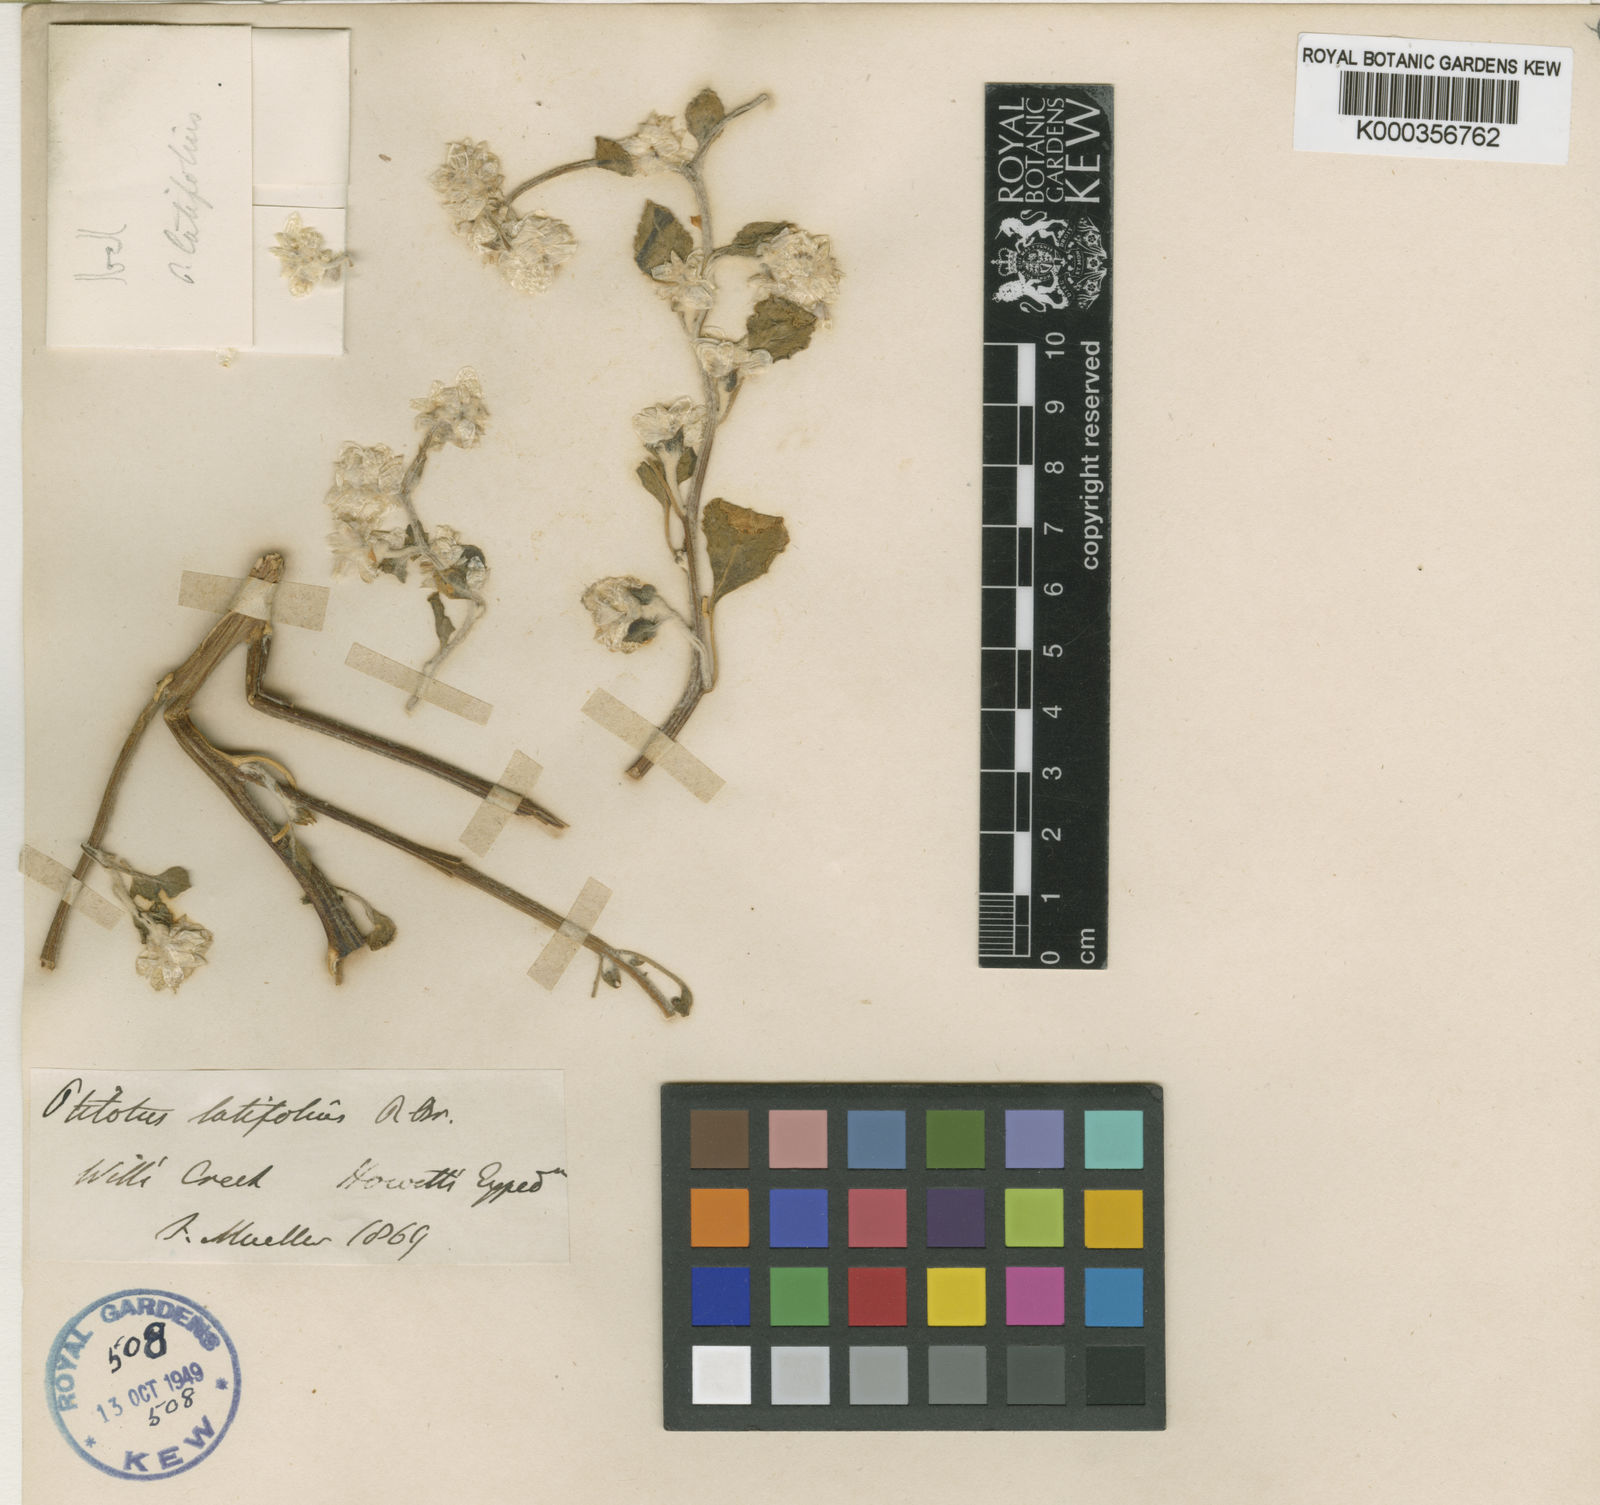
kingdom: Plantae
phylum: Tracheophyta
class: Magnoliopsida
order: Caryophyllales
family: Amaranthaceae
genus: Ptilotus
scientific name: Ptilotus latifolius
